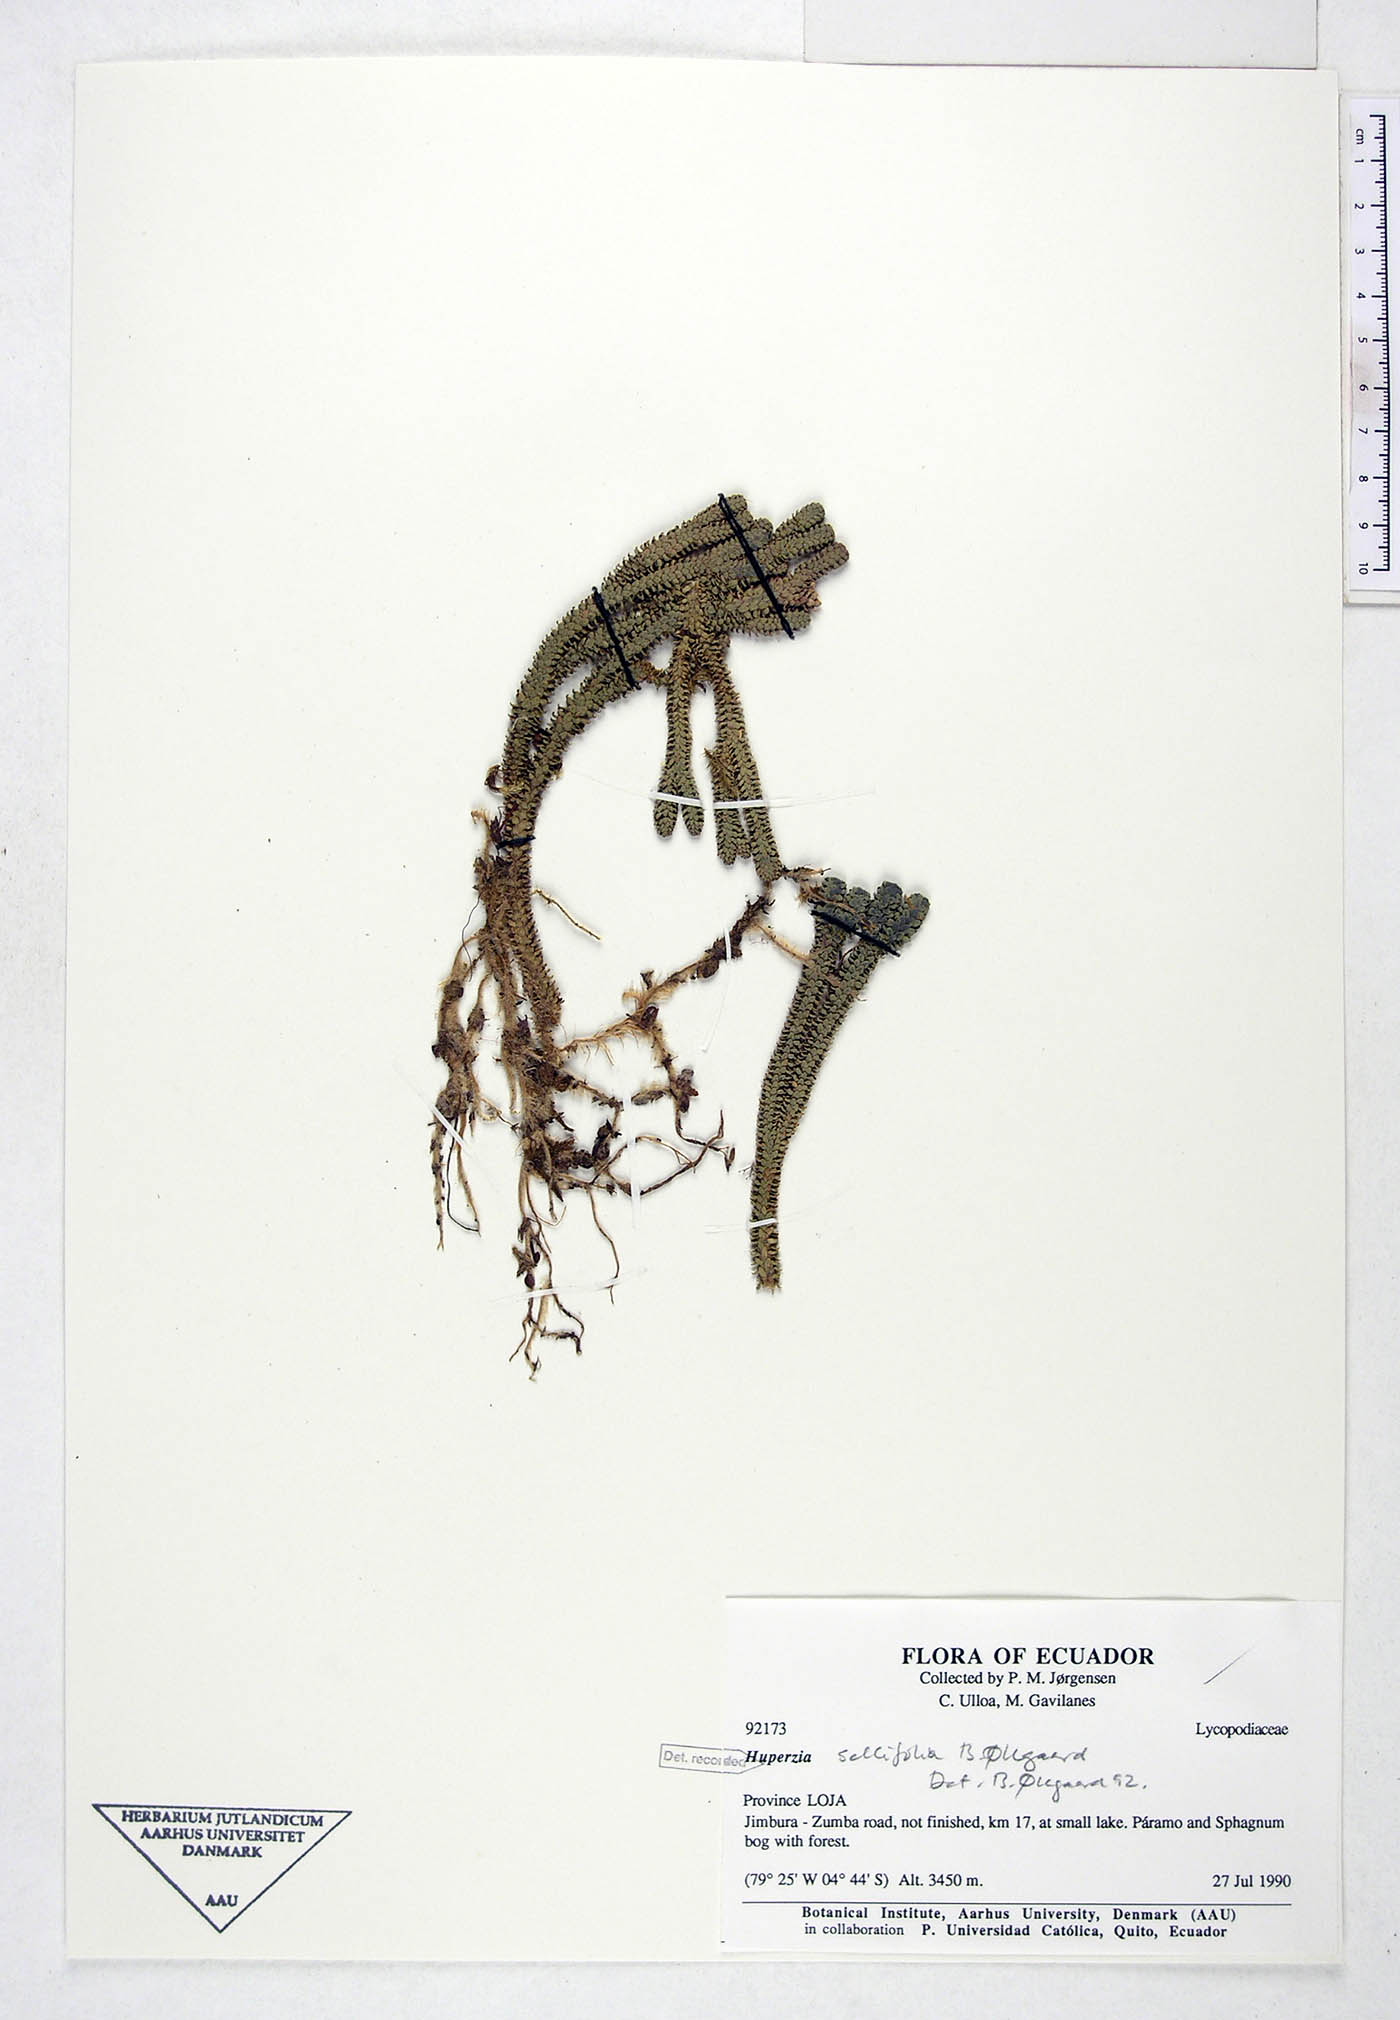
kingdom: Plantae
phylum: Tracheophyta
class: Lycopodiopsida
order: Lycopodiales
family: Lycopodiaceae
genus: Phlegmariurus
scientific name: Phlegmariurus sellifolius
